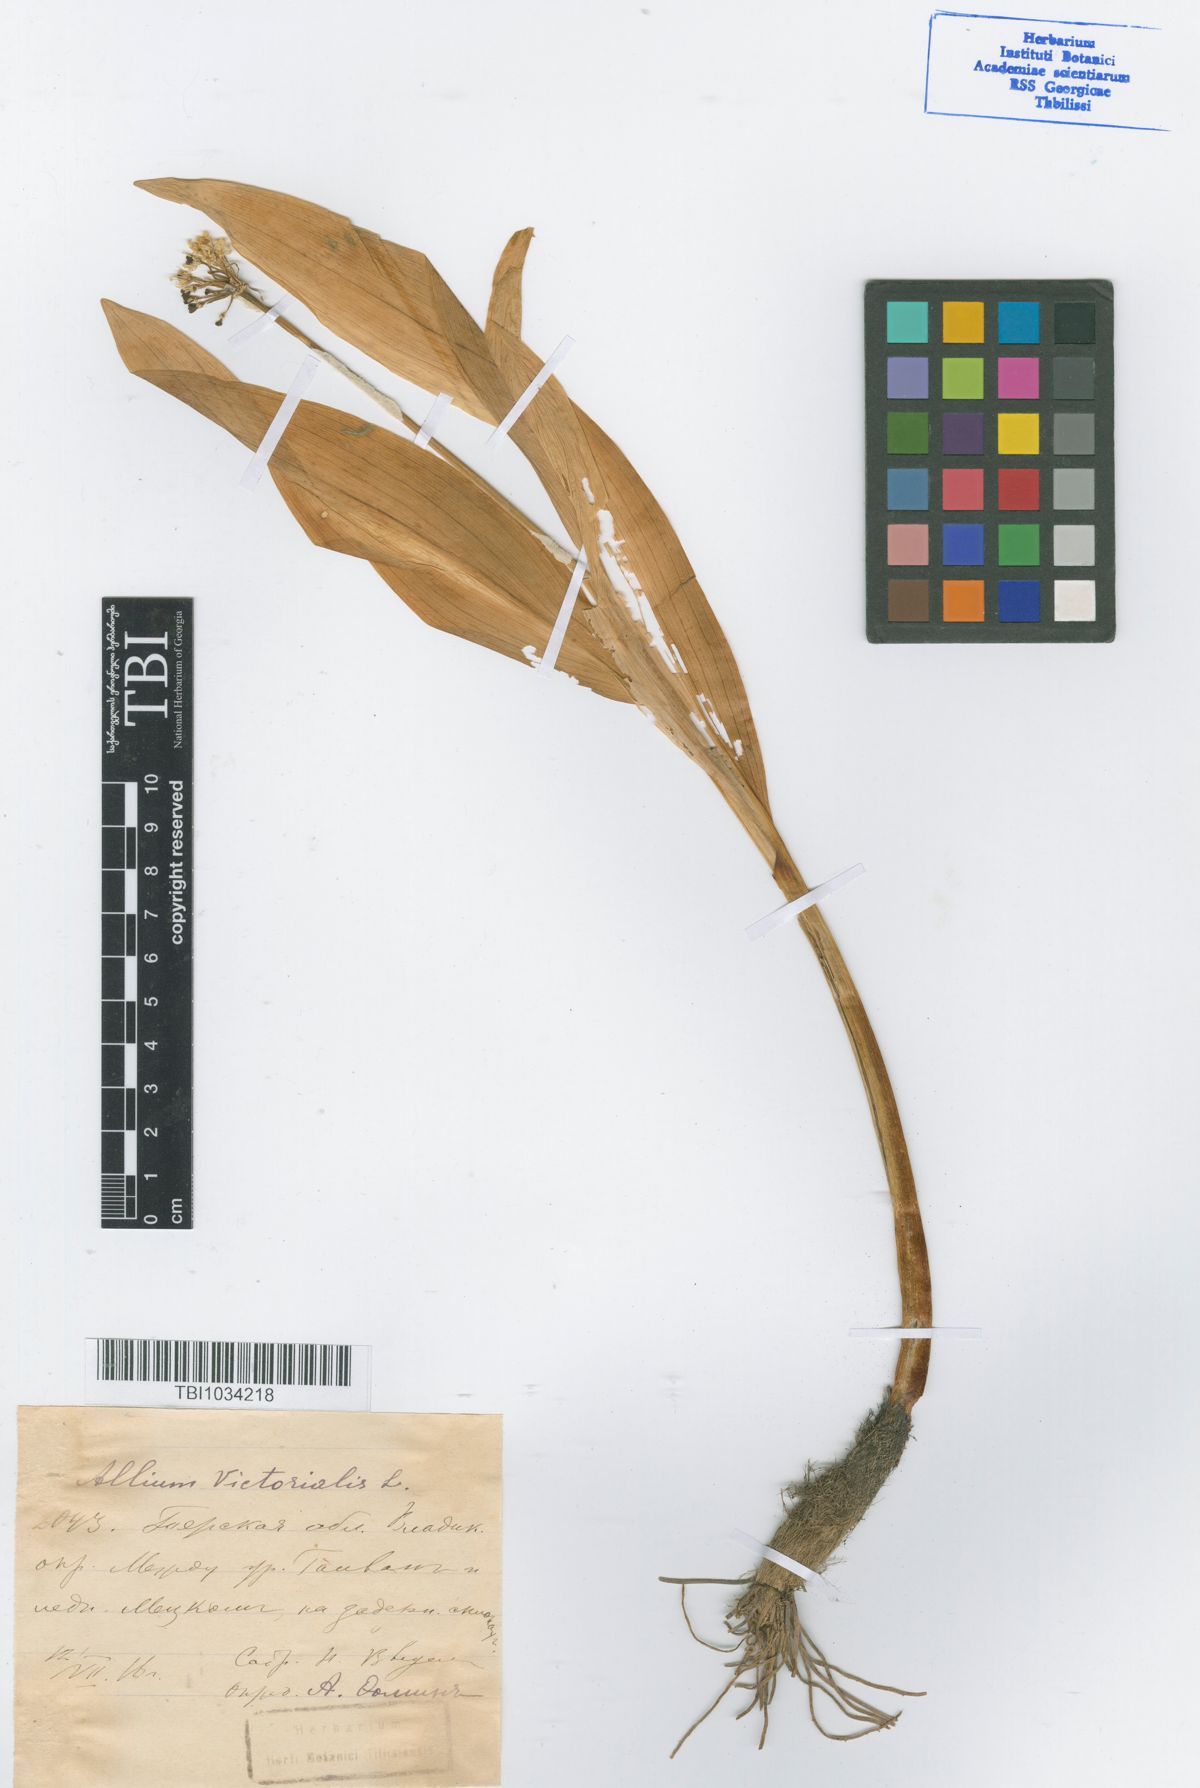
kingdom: Plantae
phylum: Tracheophyta
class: Liliopsida
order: Asparagales
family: Amaryllidaceae
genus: Allium
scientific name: Allium victorialis
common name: Alpine leek
